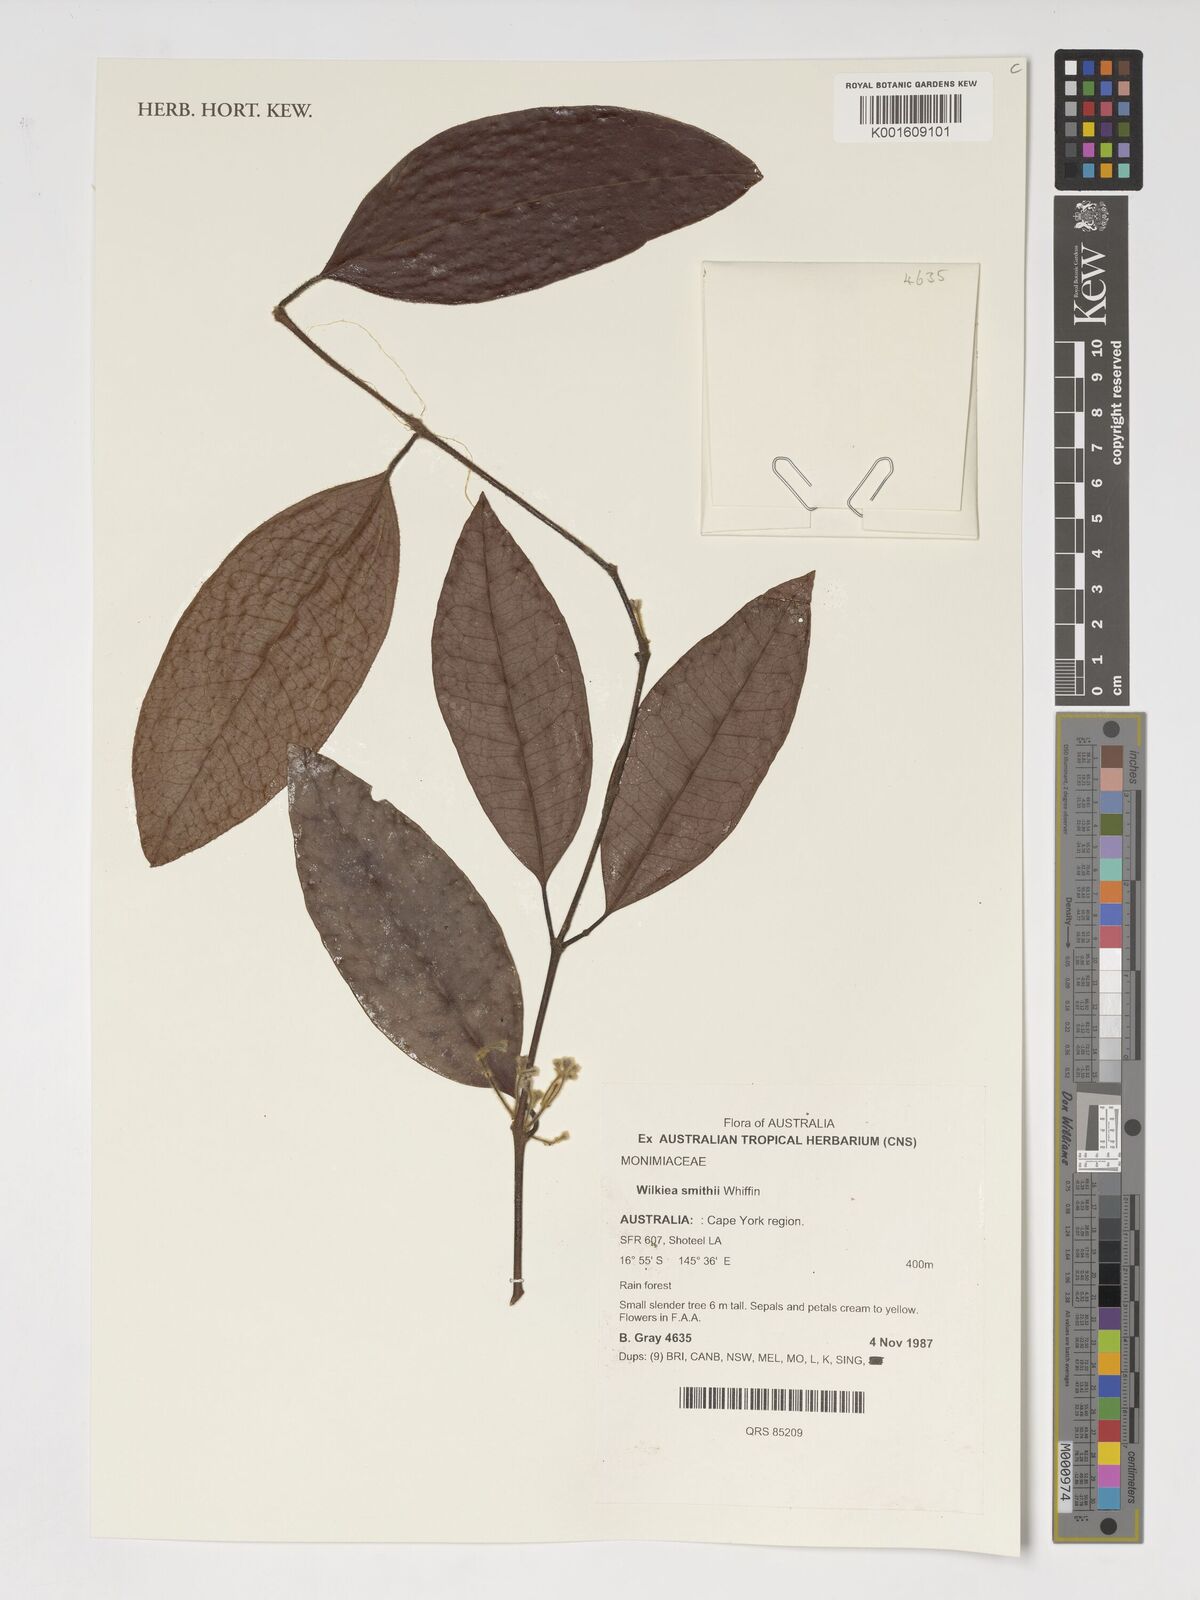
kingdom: Plantae
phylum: Tracheophyta
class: Magnoliopsida
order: Laurales
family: Monimiaceae
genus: Wilkiea
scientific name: Wilkiea smithii
